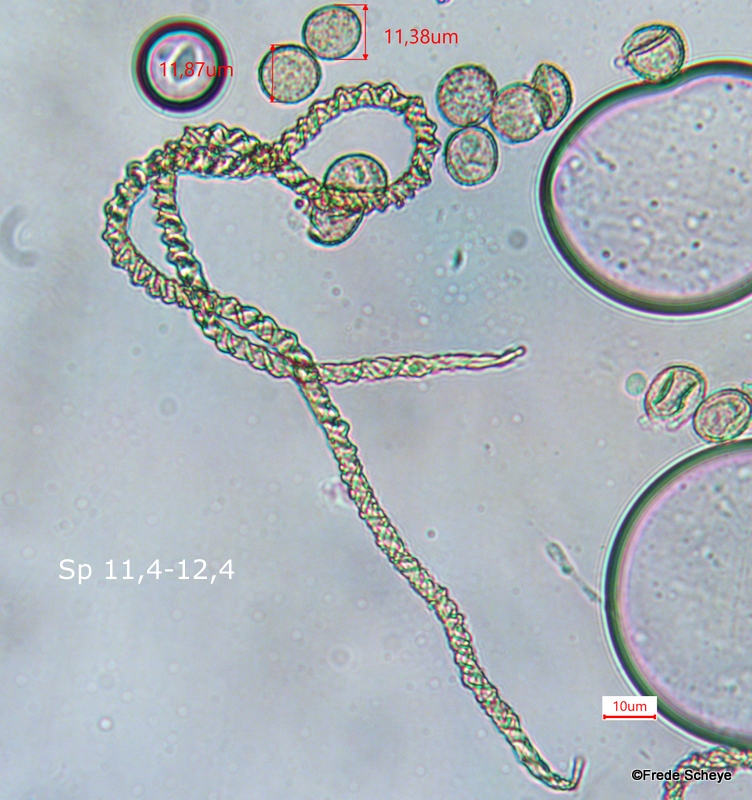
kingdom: Protozoa
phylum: Mycetozoa
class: Myxomycetes
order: Trichiales
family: Trichiaceae
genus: Trichia
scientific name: Trichia varia
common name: foranderlig hårbold
